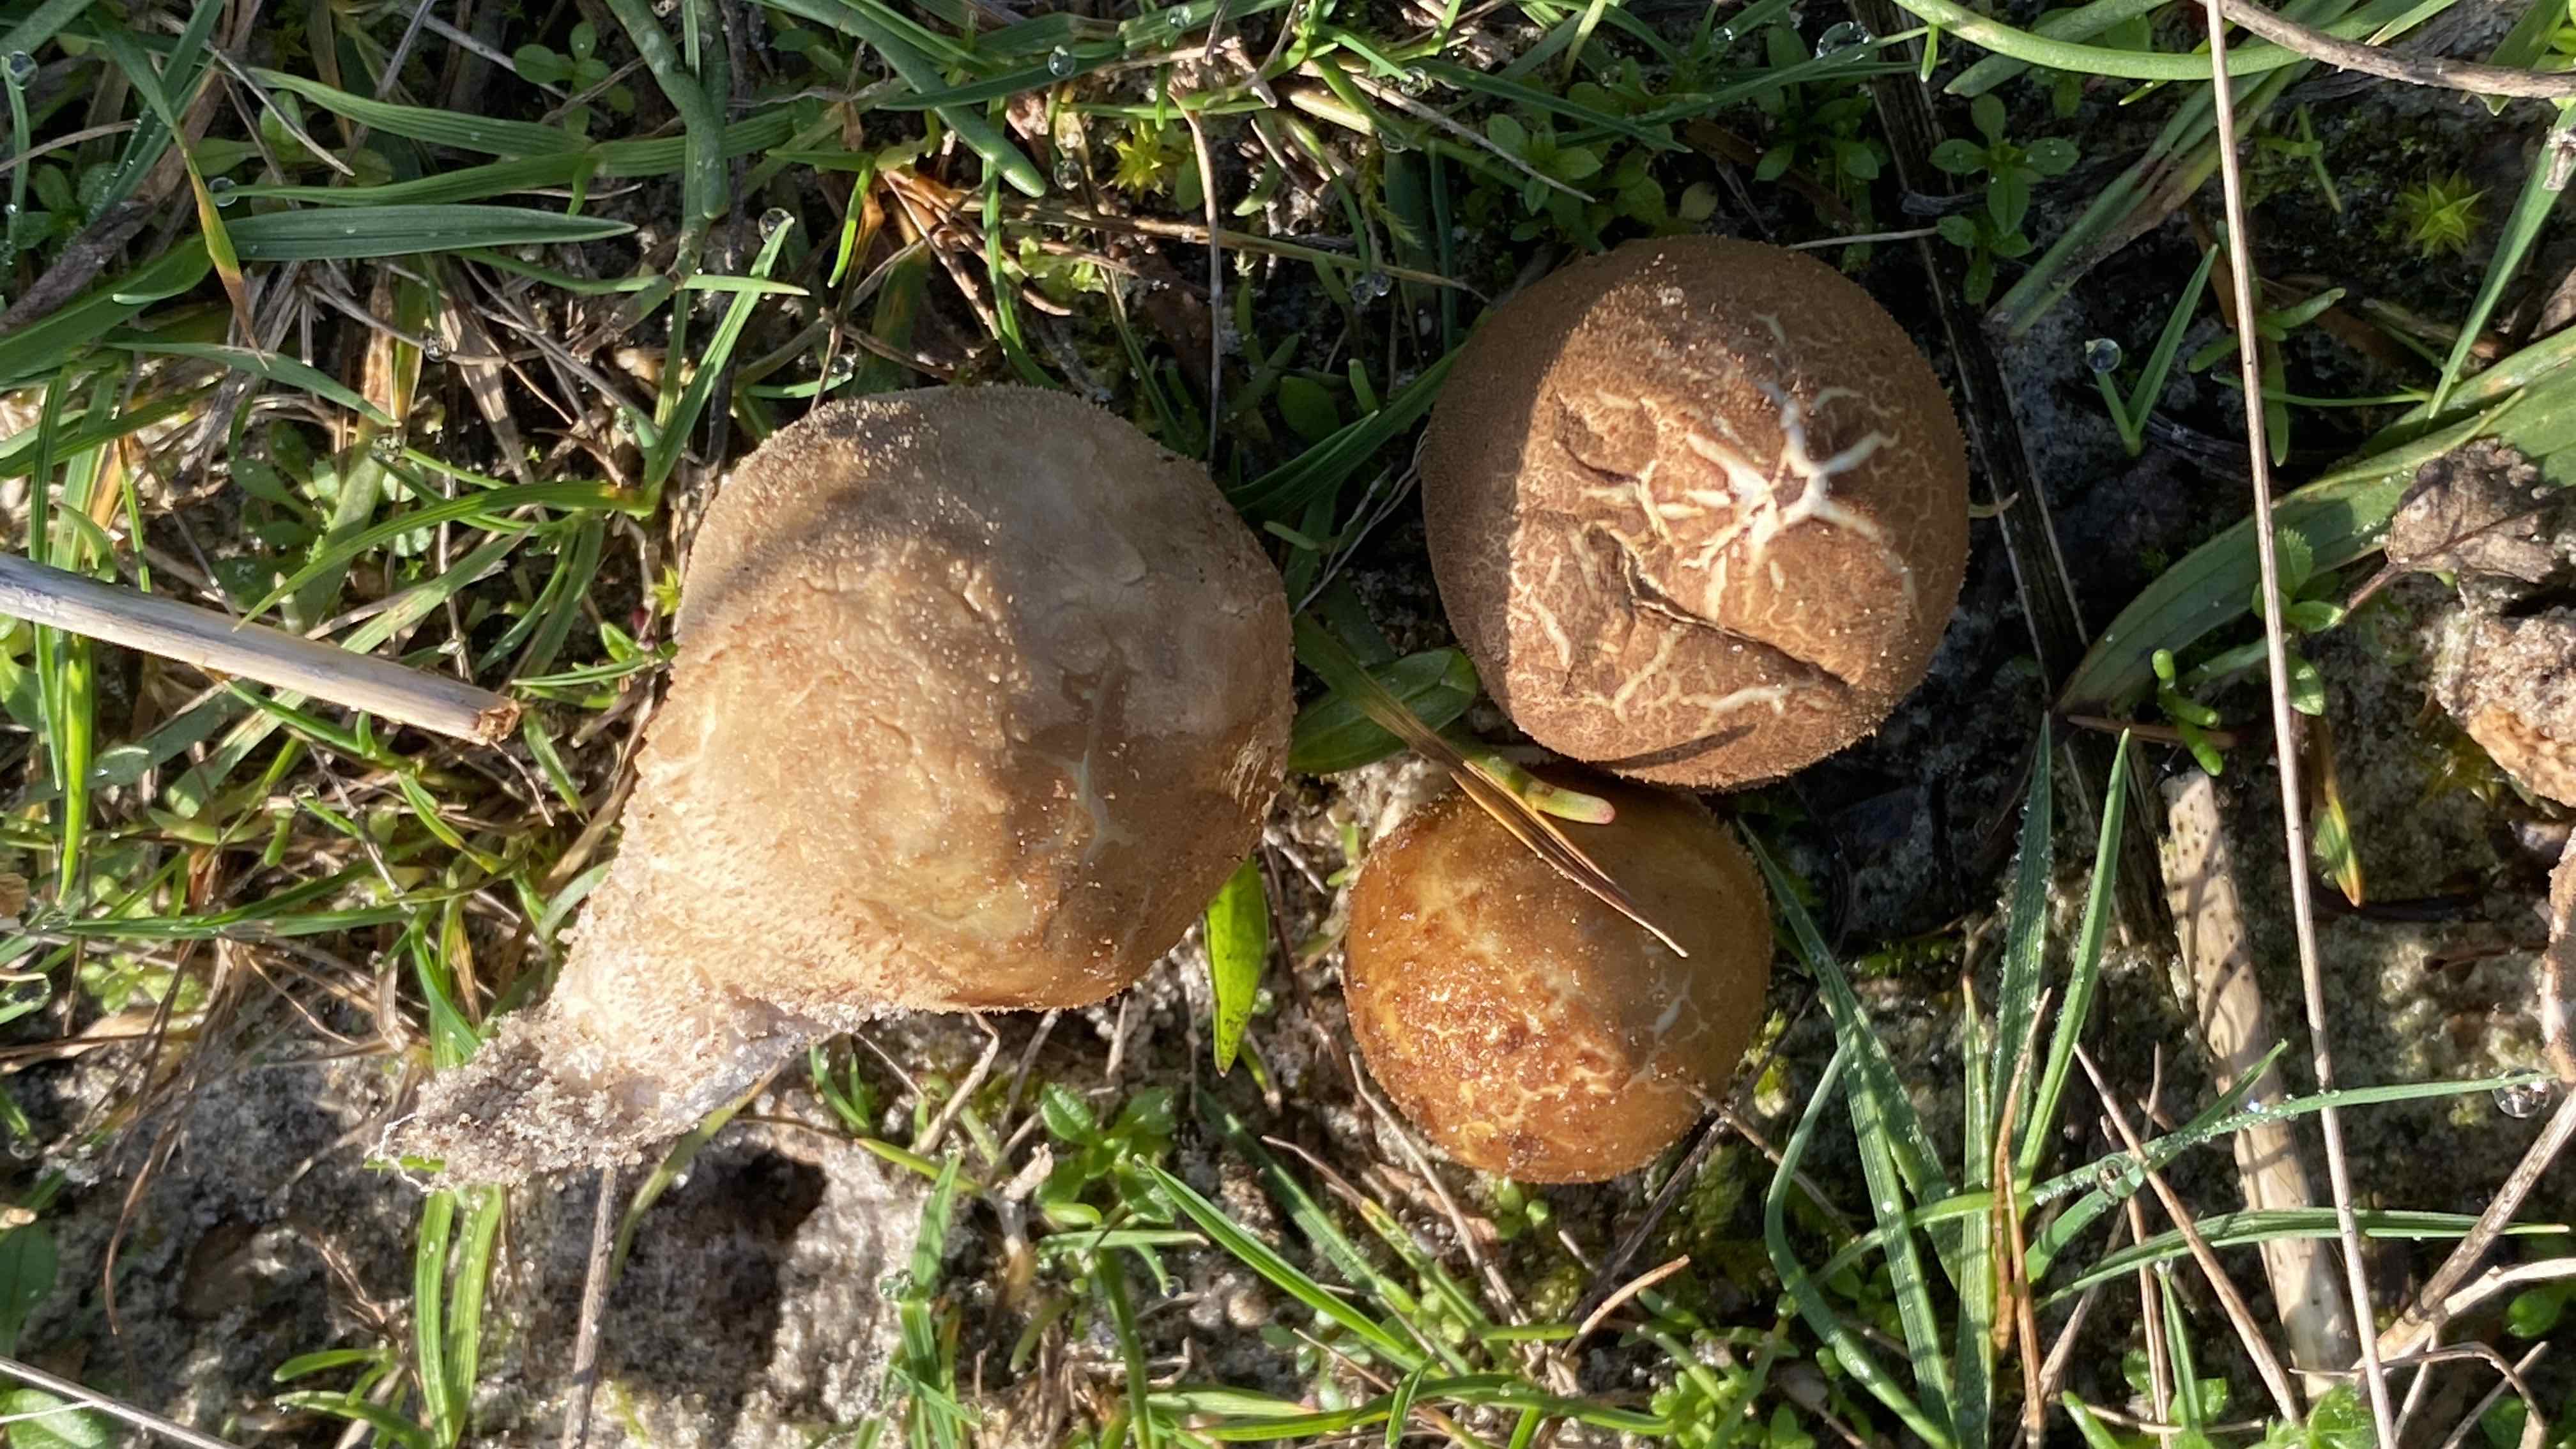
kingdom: Fungi
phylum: Basidiomycota
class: Agaricomycetes
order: Agaricales
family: Lycoperdaceae
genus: Lycoperdon
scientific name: Lycoperdon lividum
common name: mark-støvbold
